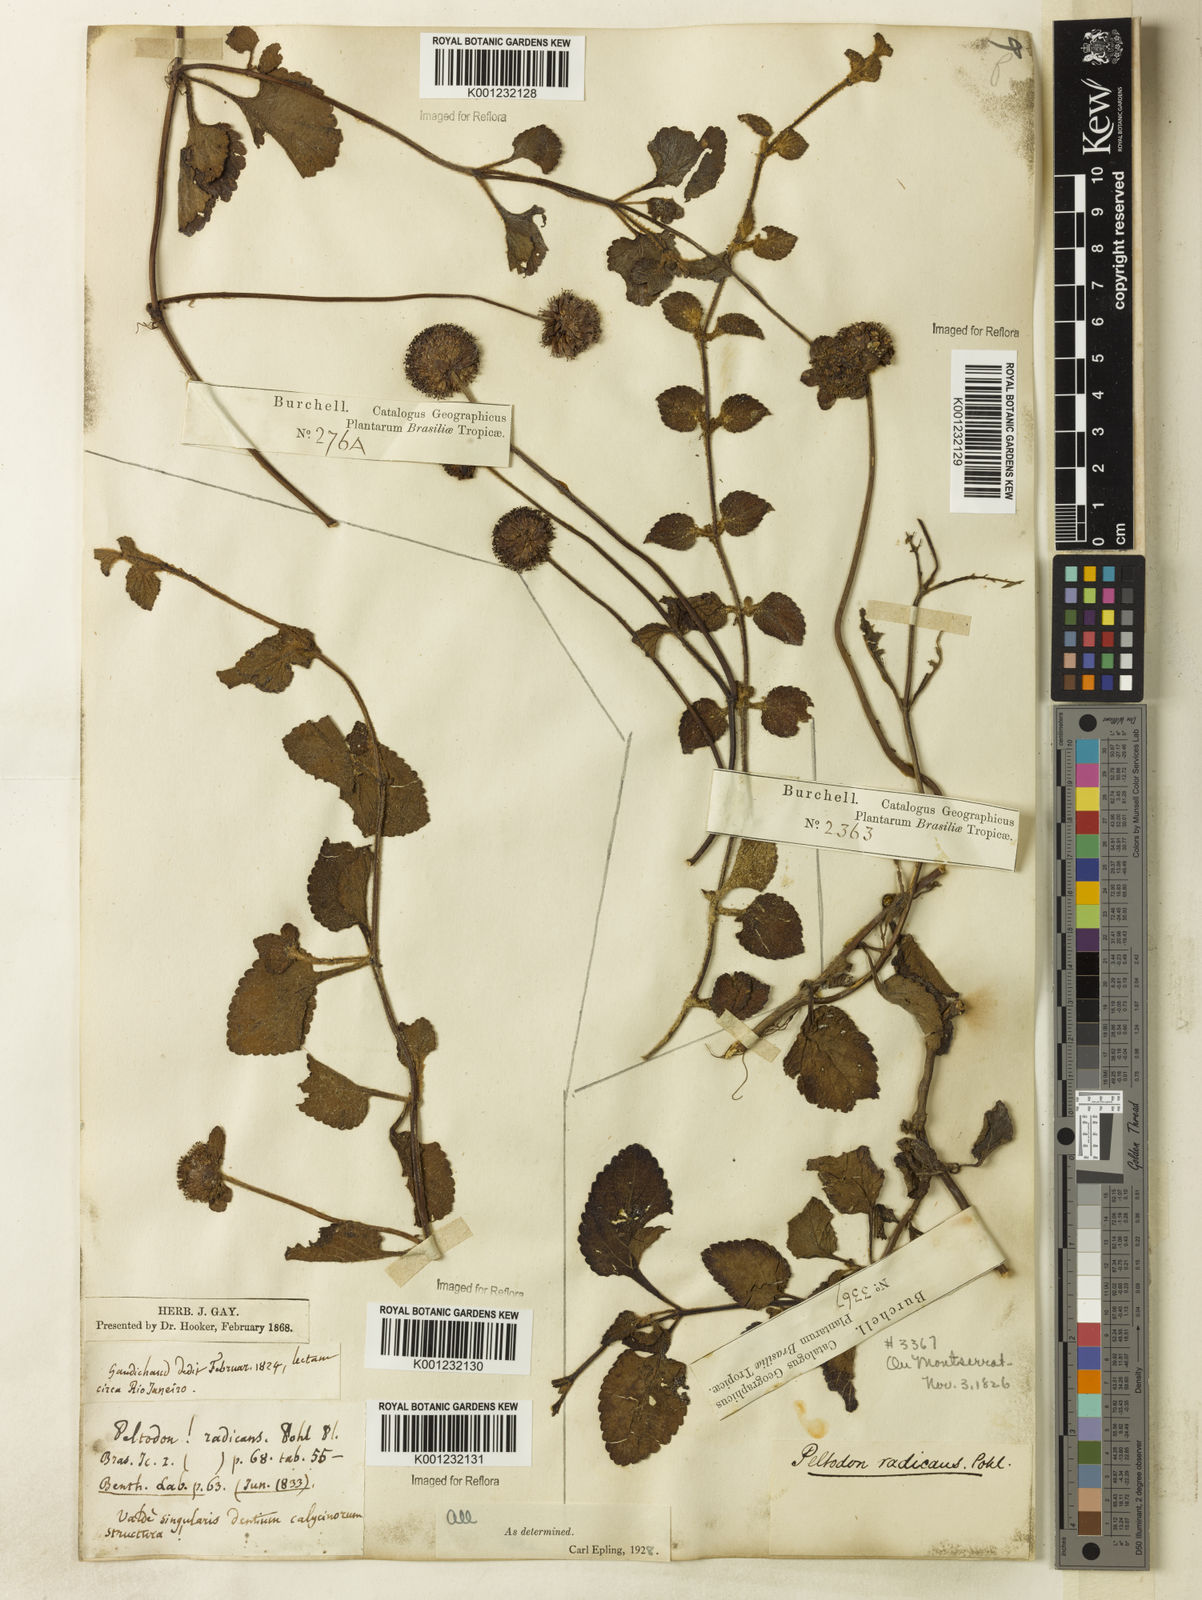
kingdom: Plantae
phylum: Tracheophyta
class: Magnoliopsida
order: Lamiales
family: Lamiaceae
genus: Hyptis
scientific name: Hyptis radicans
